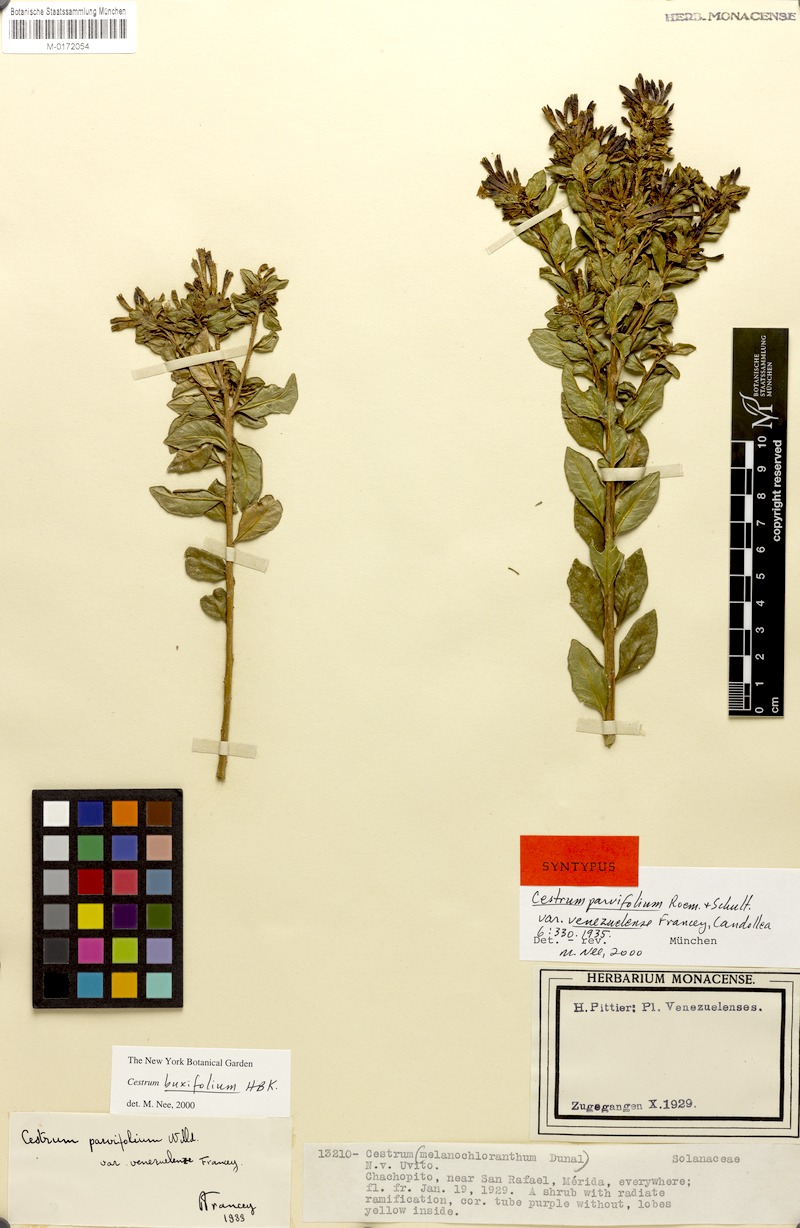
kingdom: Plantae
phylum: Tracheophyta
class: Magnoliopsida
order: Solanales
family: Solanaceae
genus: Cestrum
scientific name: Cestrum buxifolium
